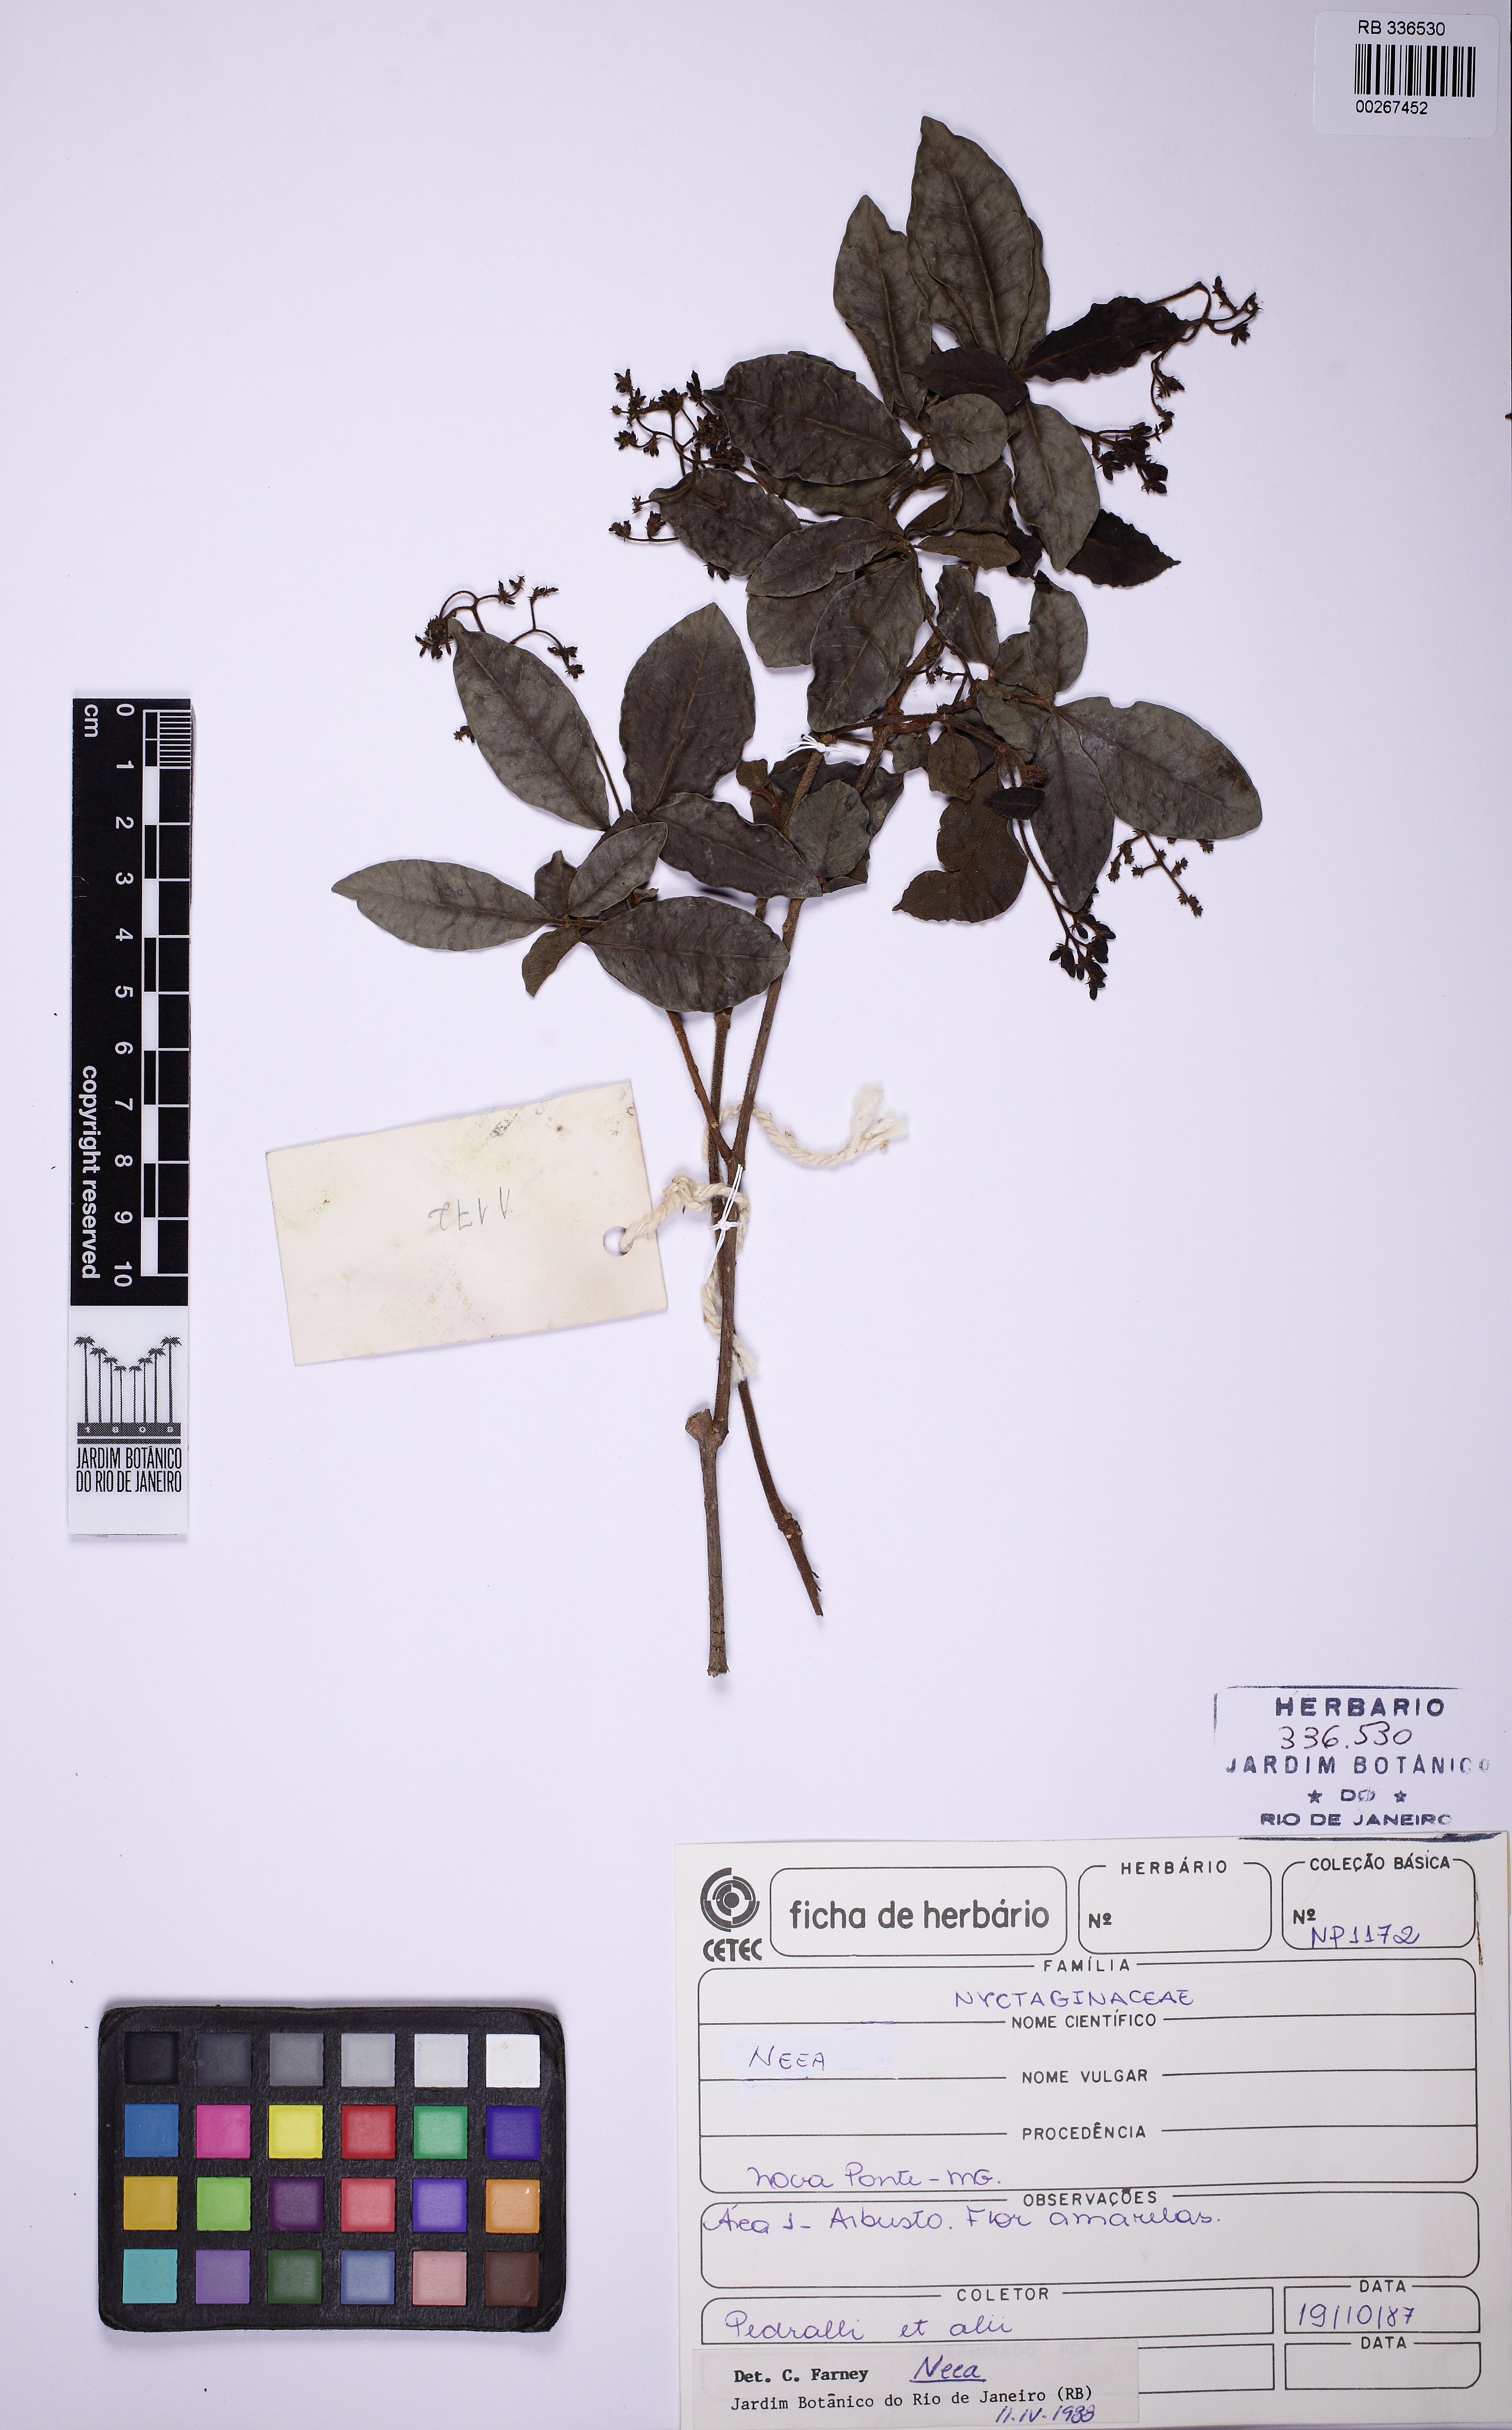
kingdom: Plantae
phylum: Tracheophyta
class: Magnoliopsida
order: Caryophyllales
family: Nyctaginaceae
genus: Neea
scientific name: Neea hermaphrodita
